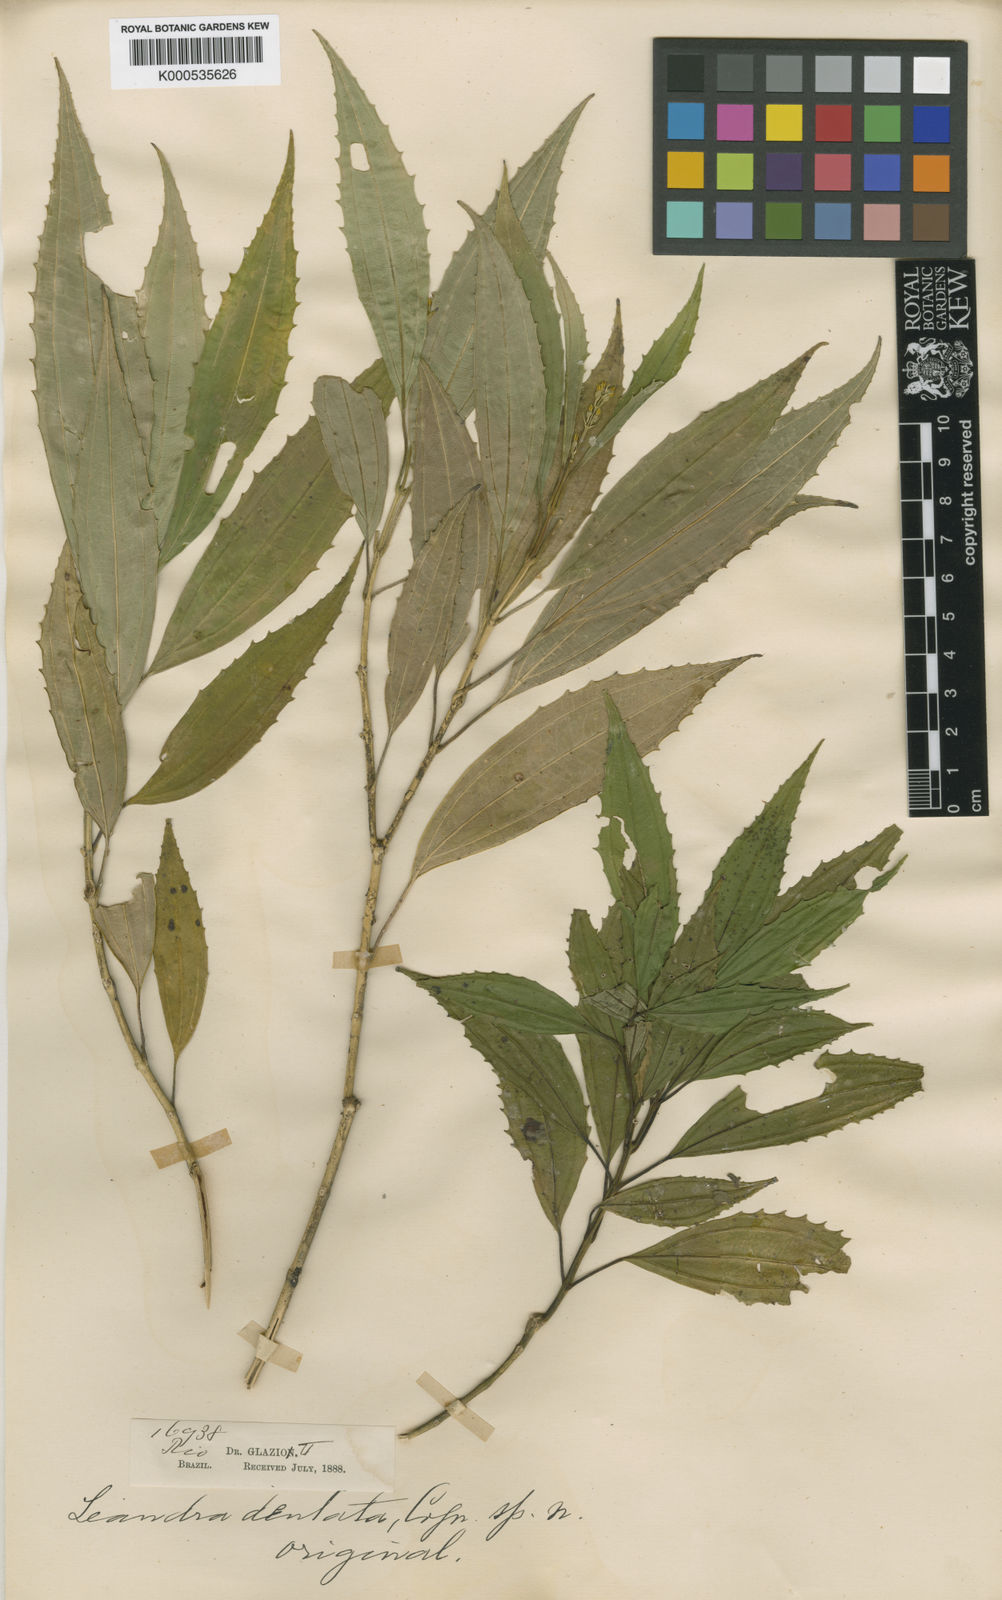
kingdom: Plantae
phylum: Tracheophyta
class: Magnoliopsida
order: Myrtales
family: Melastomataceae
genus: Miconia
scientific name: Miconia leadentata
